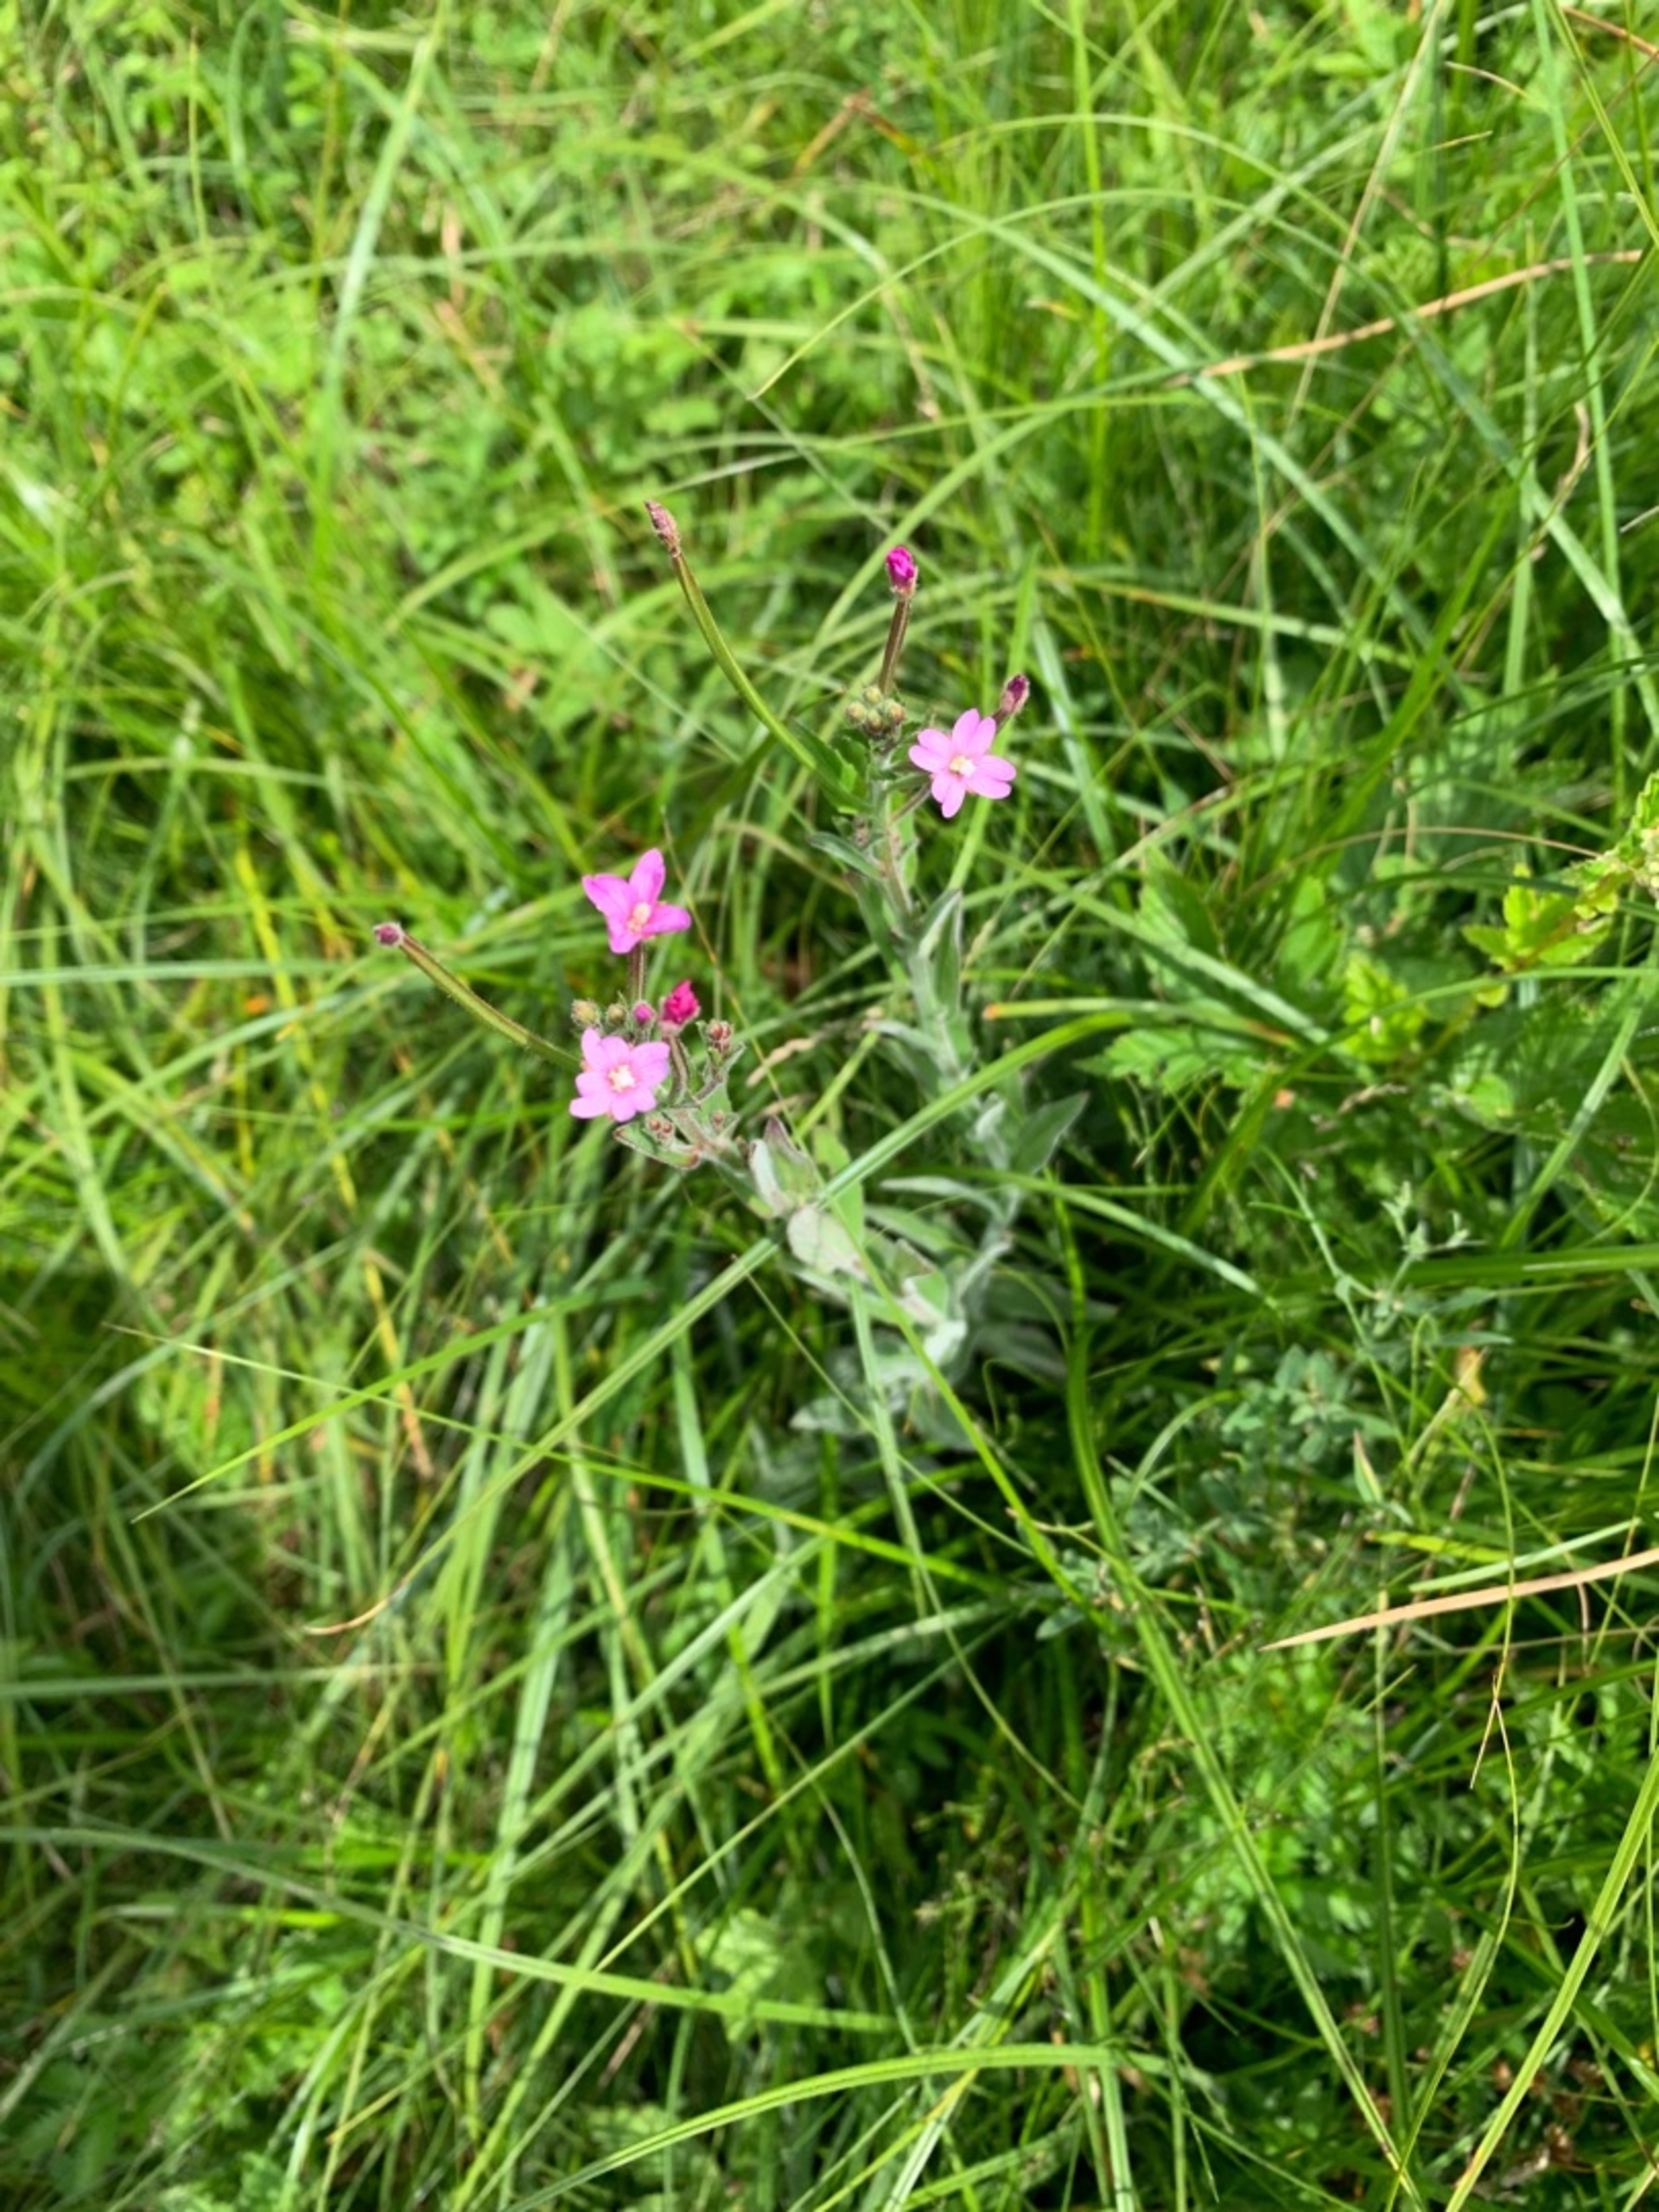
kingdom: Plantae
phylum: Tracheophyta
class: Magnoliopsida
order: Myrtales
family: Onagraceae
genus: Epilobium
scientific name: Epilobium parviflorum
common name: Dunet dueurt
